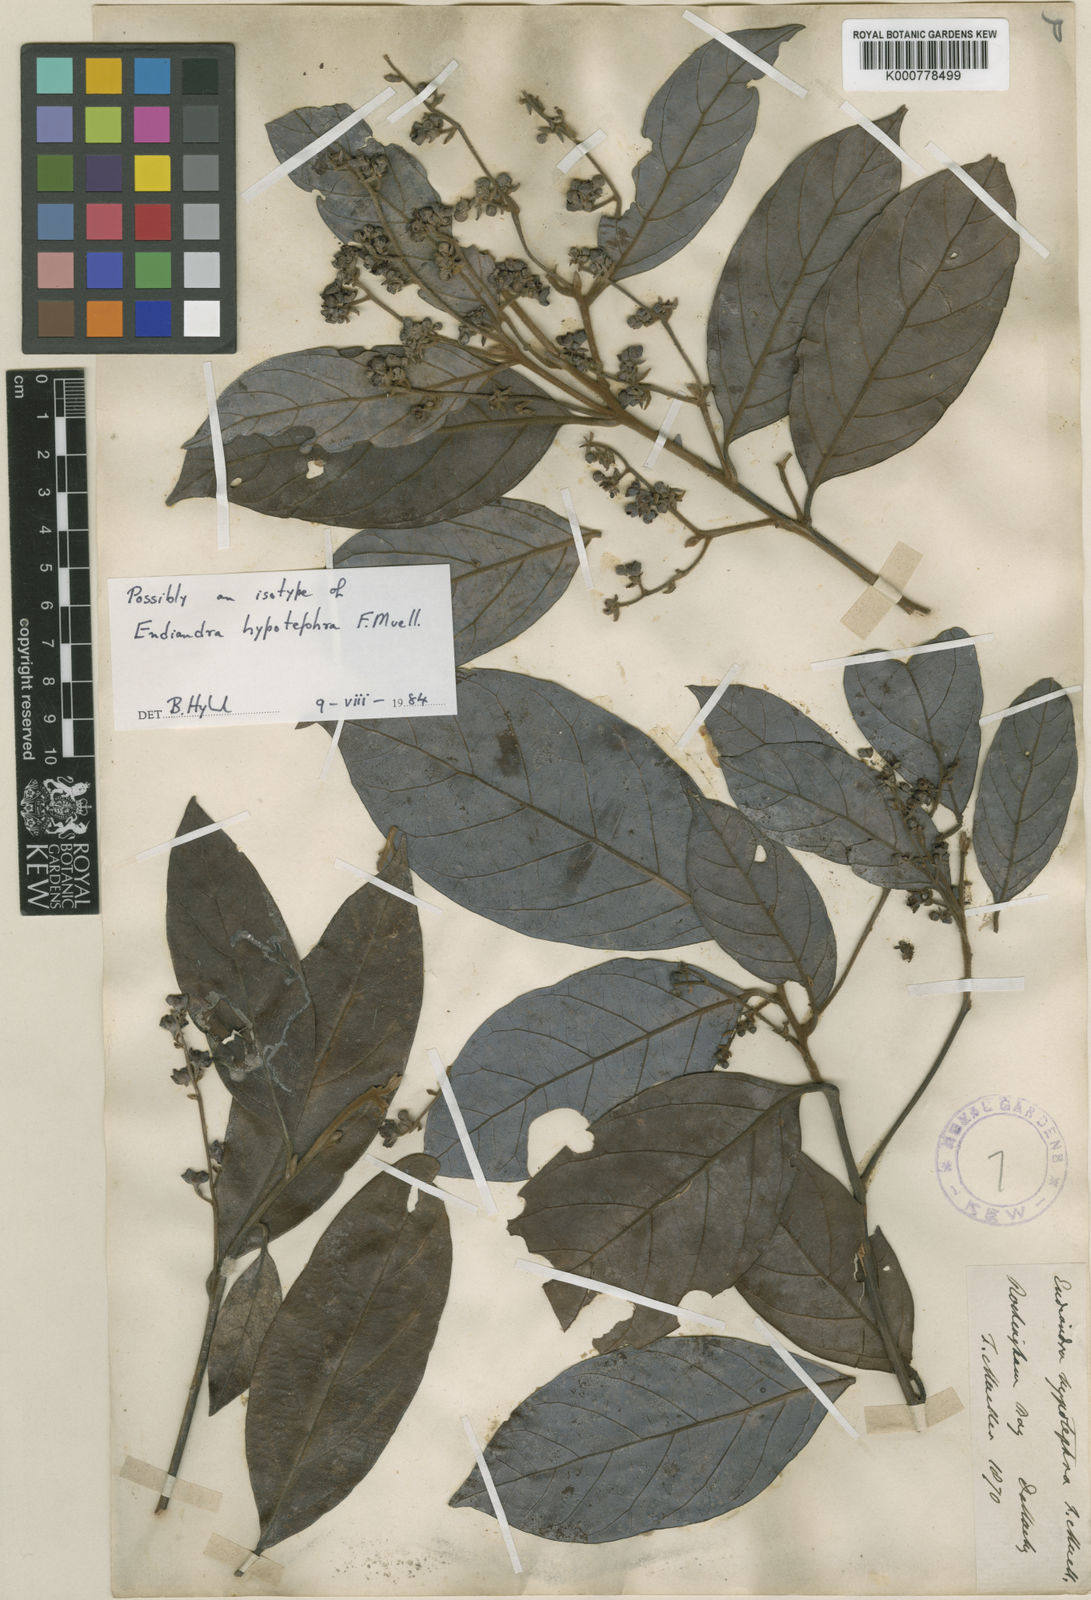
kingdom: Plantae
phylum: Tracheophyta
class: Magnoliopsida
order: Laurales
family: Lauraceae
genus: Endiandra
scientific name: Endiandra hypotephra
